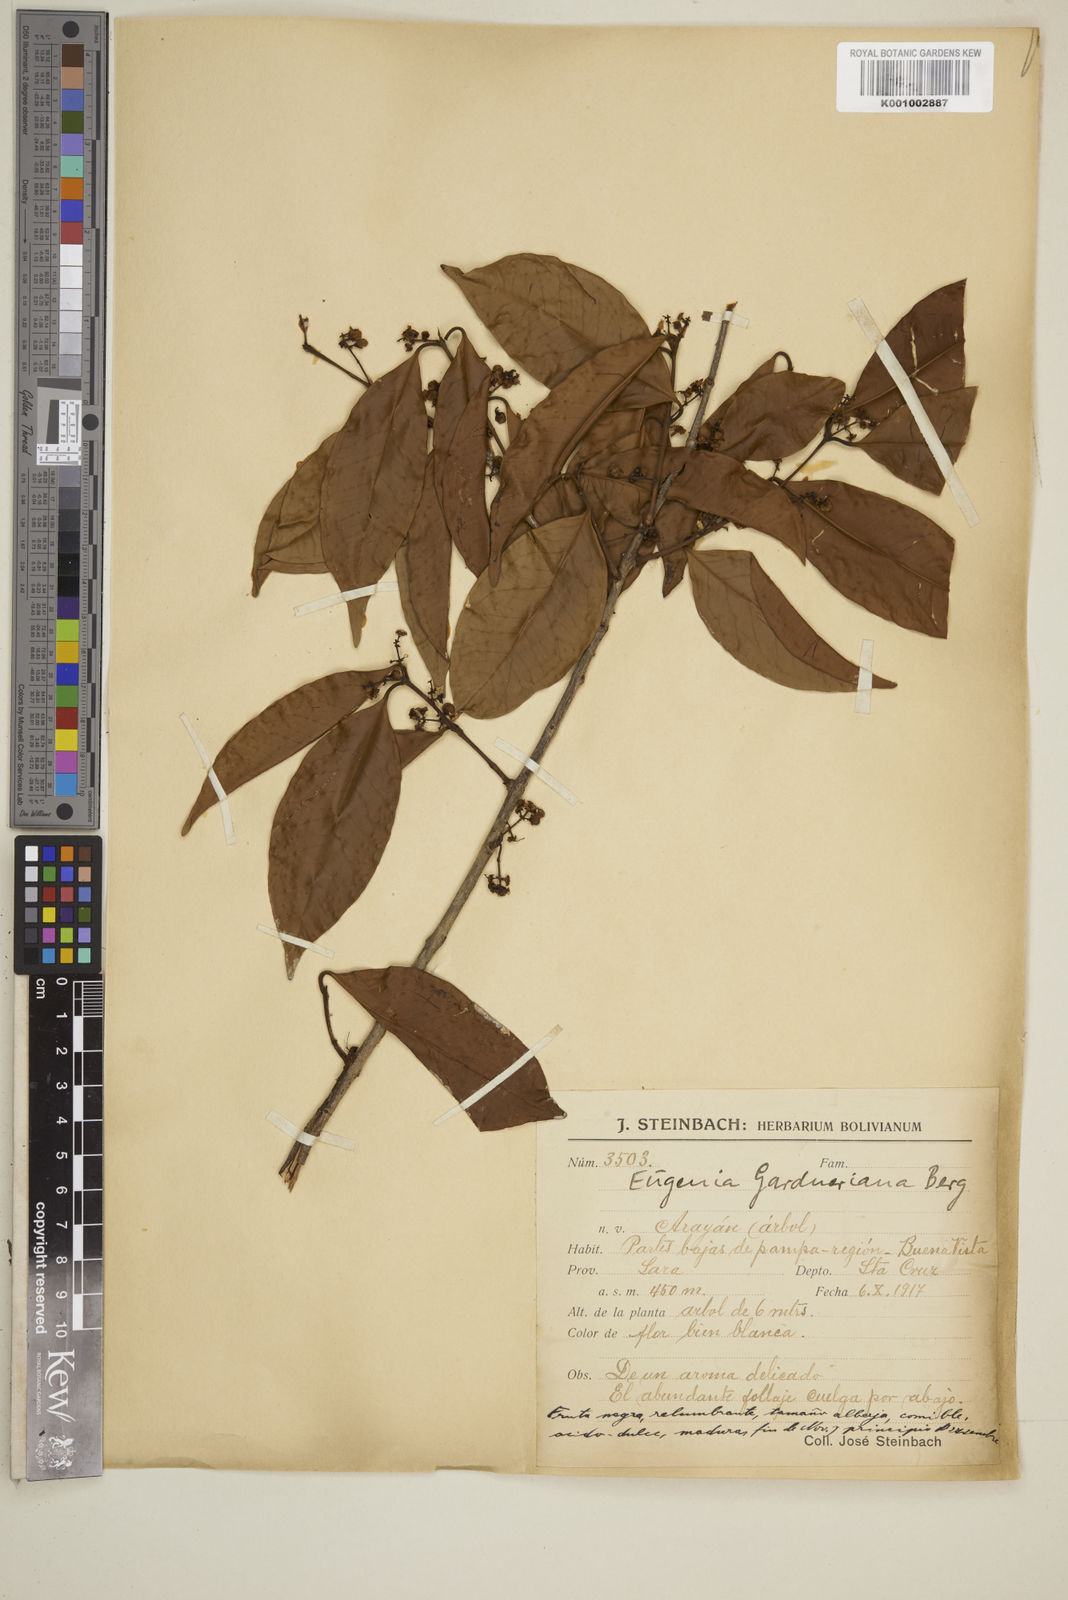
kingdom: Plantae
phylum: Tracheophyta
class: Magnoliopsida
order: Myrtales
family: Myrtaceae
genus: Eugenia
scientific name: Eugenia florida
